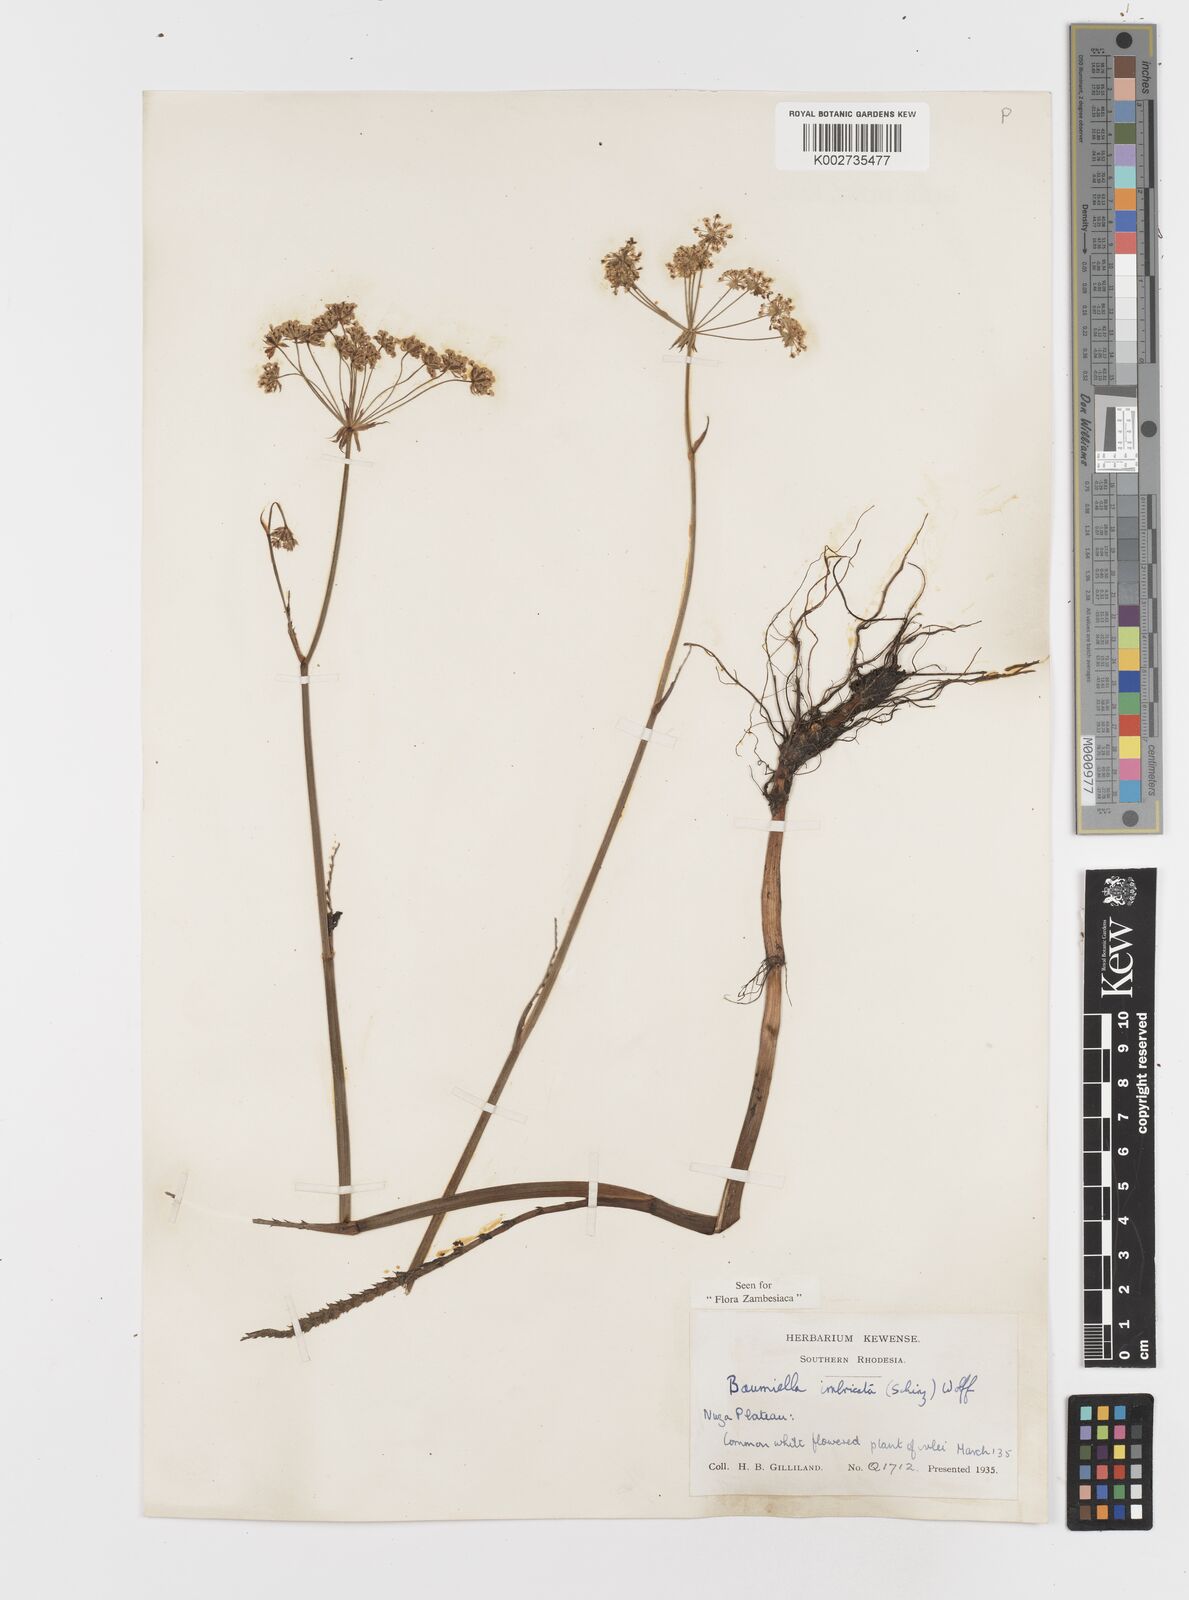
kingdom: Plantae
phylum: Tracheophyta
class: Magnoliopsida
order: Apiales
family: Apiaceae
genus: Berula
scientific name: Berula imbricata
